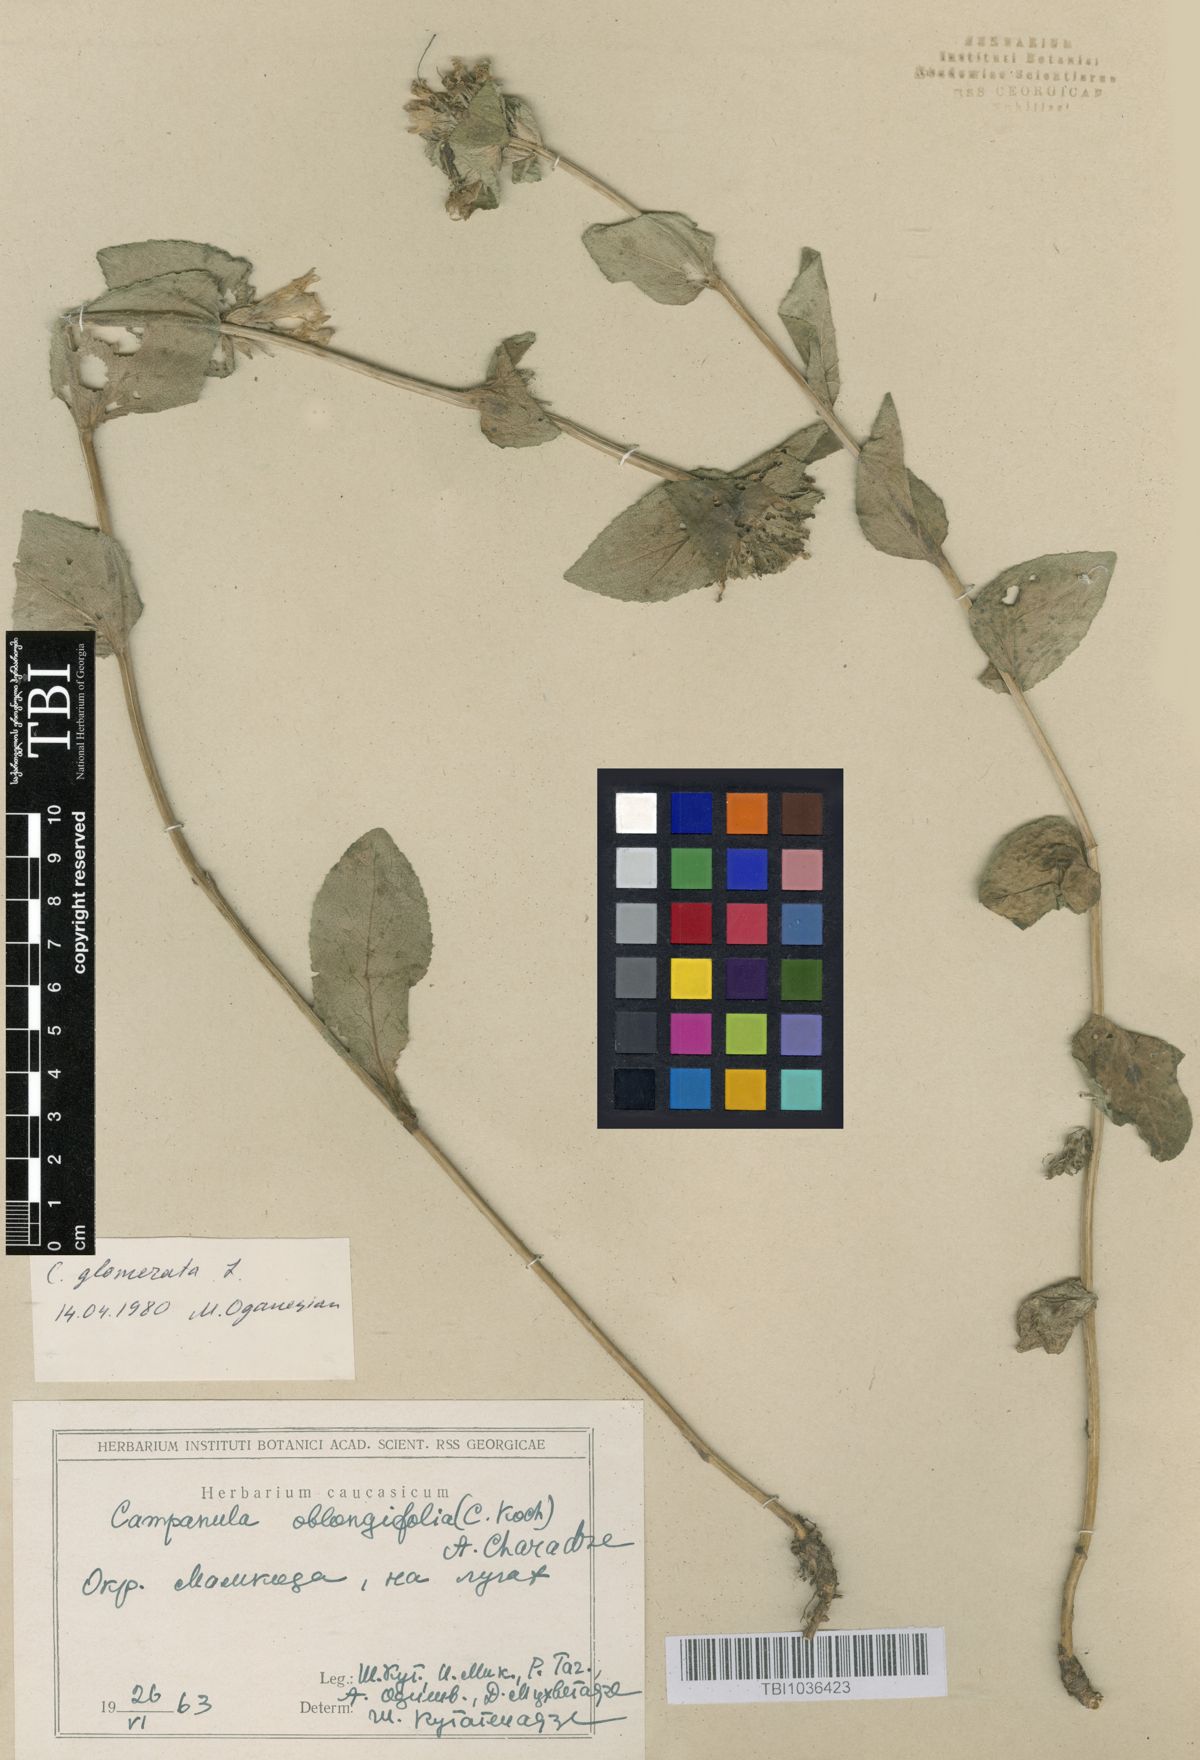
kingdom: Plantae
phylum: Tracheophyta
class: Magnoliopsida
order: Asterales
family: Campanulaceae
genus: Campanula
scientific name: Campanula glomerata
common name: Clustered bellflower
